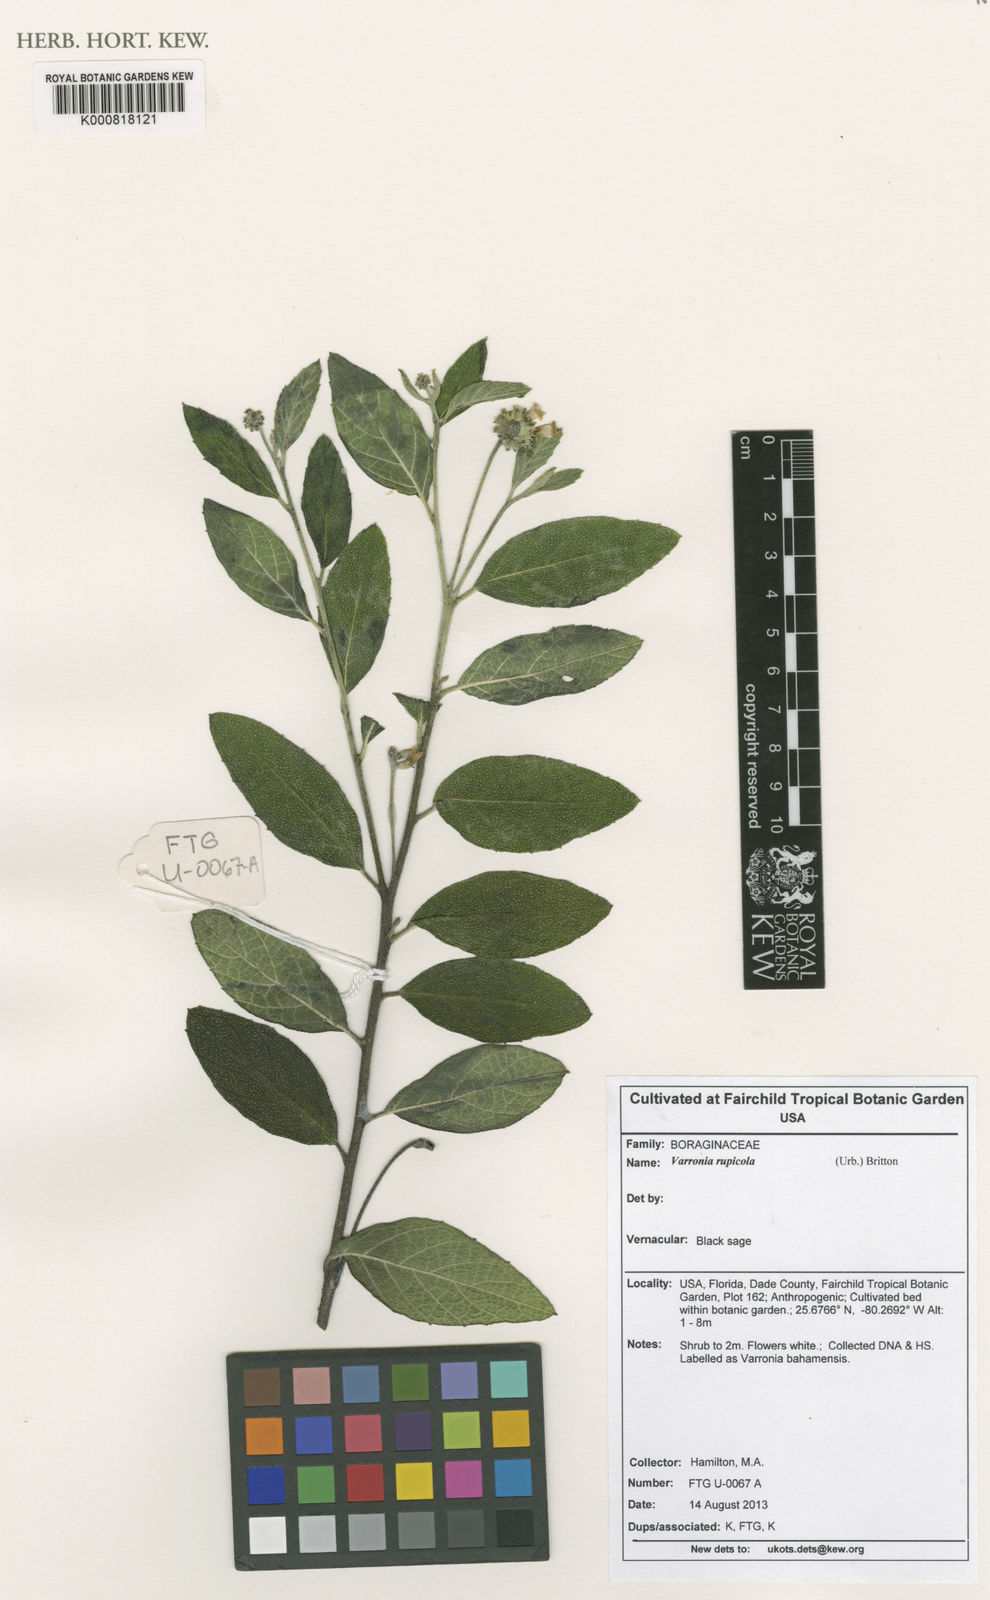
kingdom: Plantae
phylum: Tracheophyta
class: Magnoliopsida
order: Boraginales
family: Cordiaceae
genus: Varronia
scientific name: Varronia rupicola
